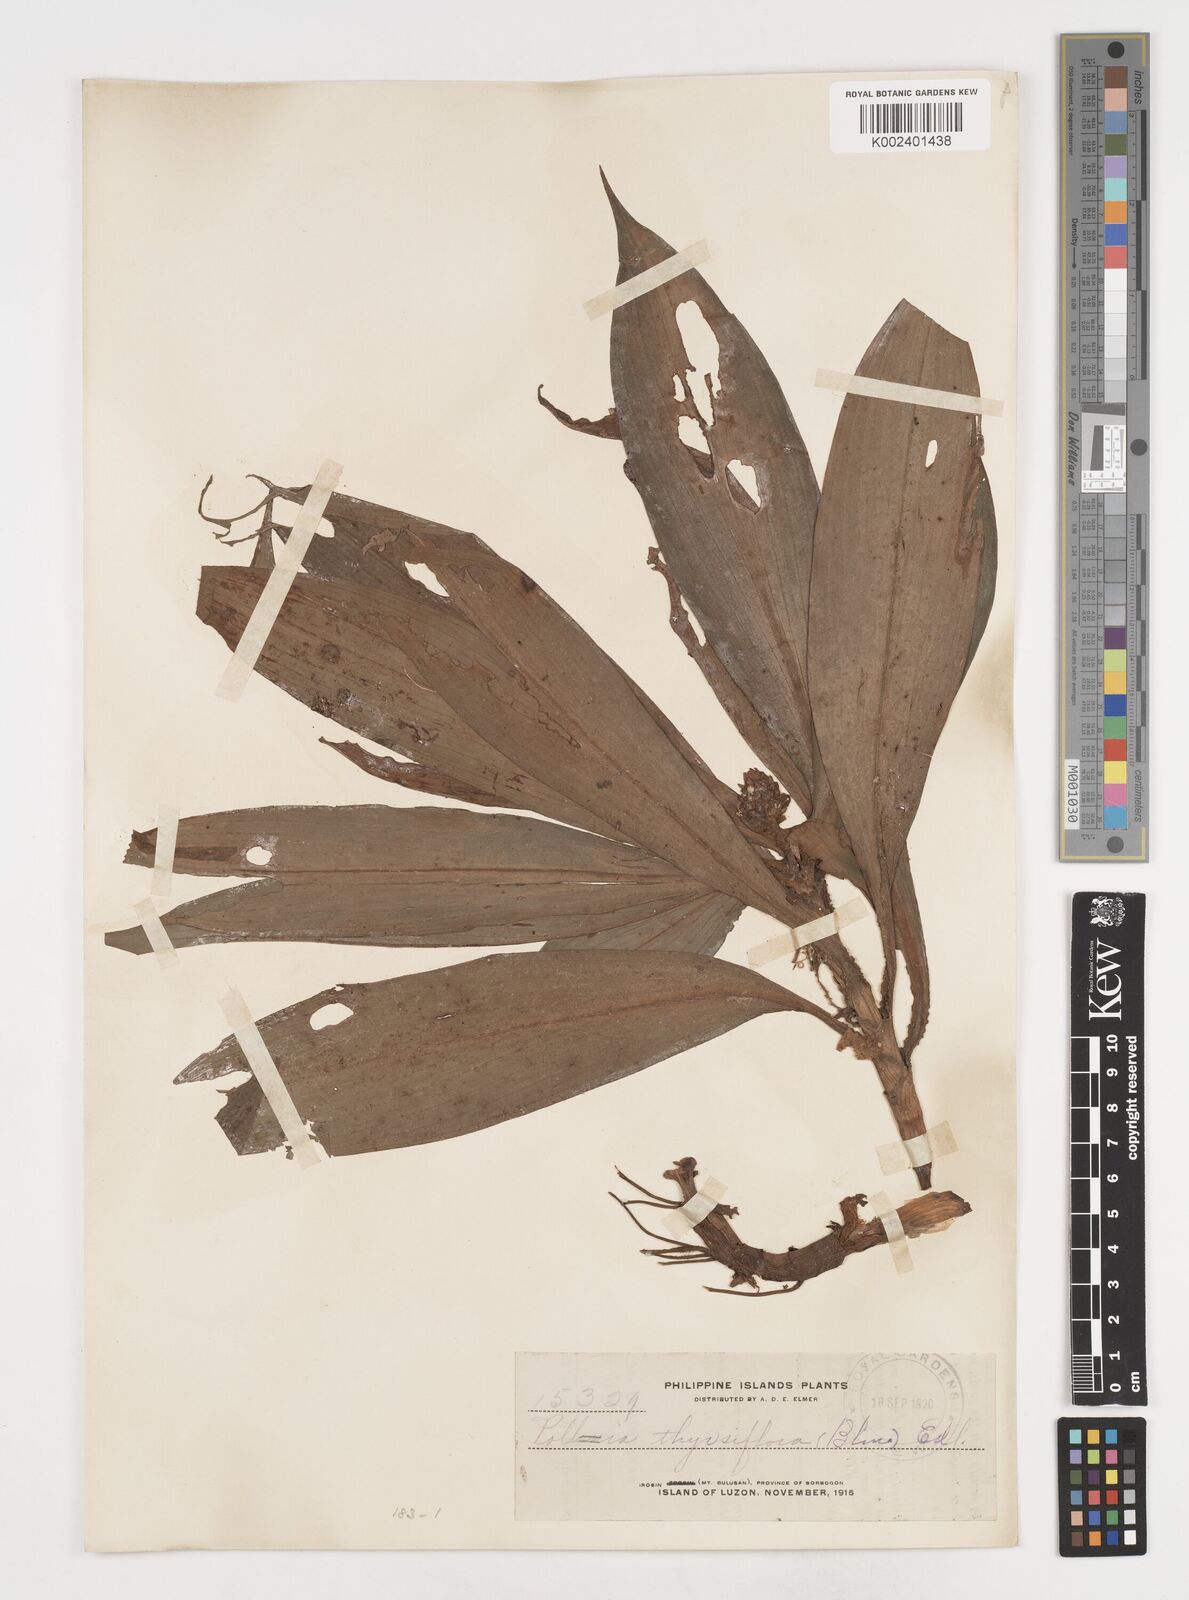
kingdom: Plantae
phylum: Tracheophyta
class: Liliopsida
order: Commelinales
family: Commelinaceae
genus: Pollia
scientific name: Pollia thyrsiflora
